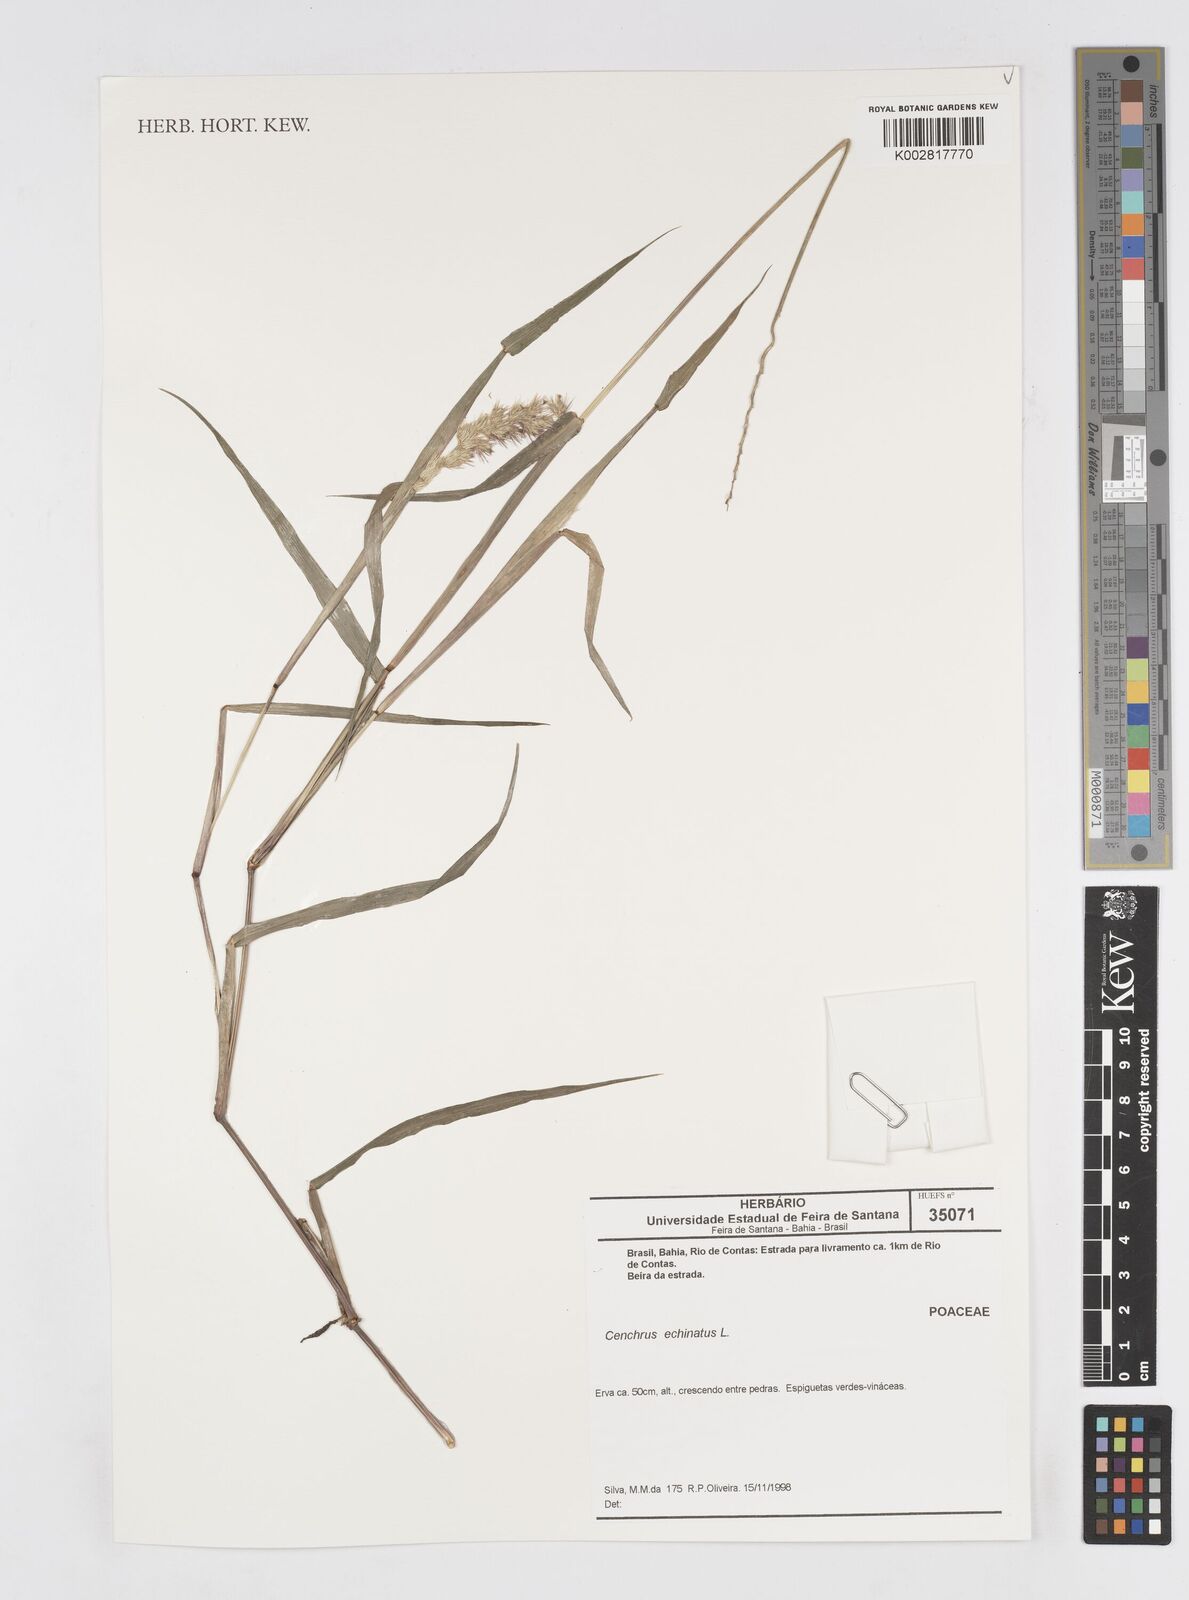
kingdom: Plantae
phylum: Tracheophyta
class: Liliopsida
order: Poales
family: Poaceae
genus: Cenchrus
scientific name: Cenchrus
